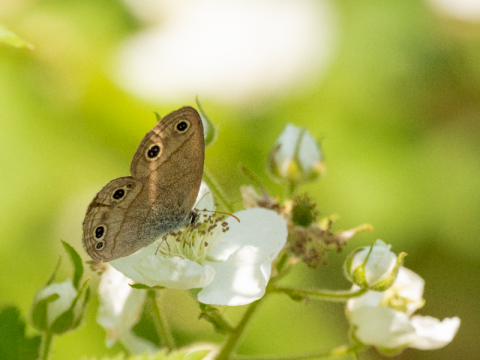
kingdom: Animalia
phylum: Arthropoda
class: Insecta
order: Lepidoptera
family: Nymphalidae
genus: Euptychia
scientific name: Euptychia cymela
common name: Little Wood Satyr
